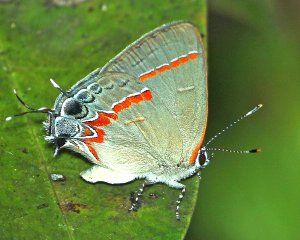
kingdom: Animalia
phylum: Arthropoda
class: Insecta
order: Lepidoptera
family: Lycaenidae
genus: Calycopis
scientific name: Calycopis cecrops
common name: Red-banded Hairstreak
